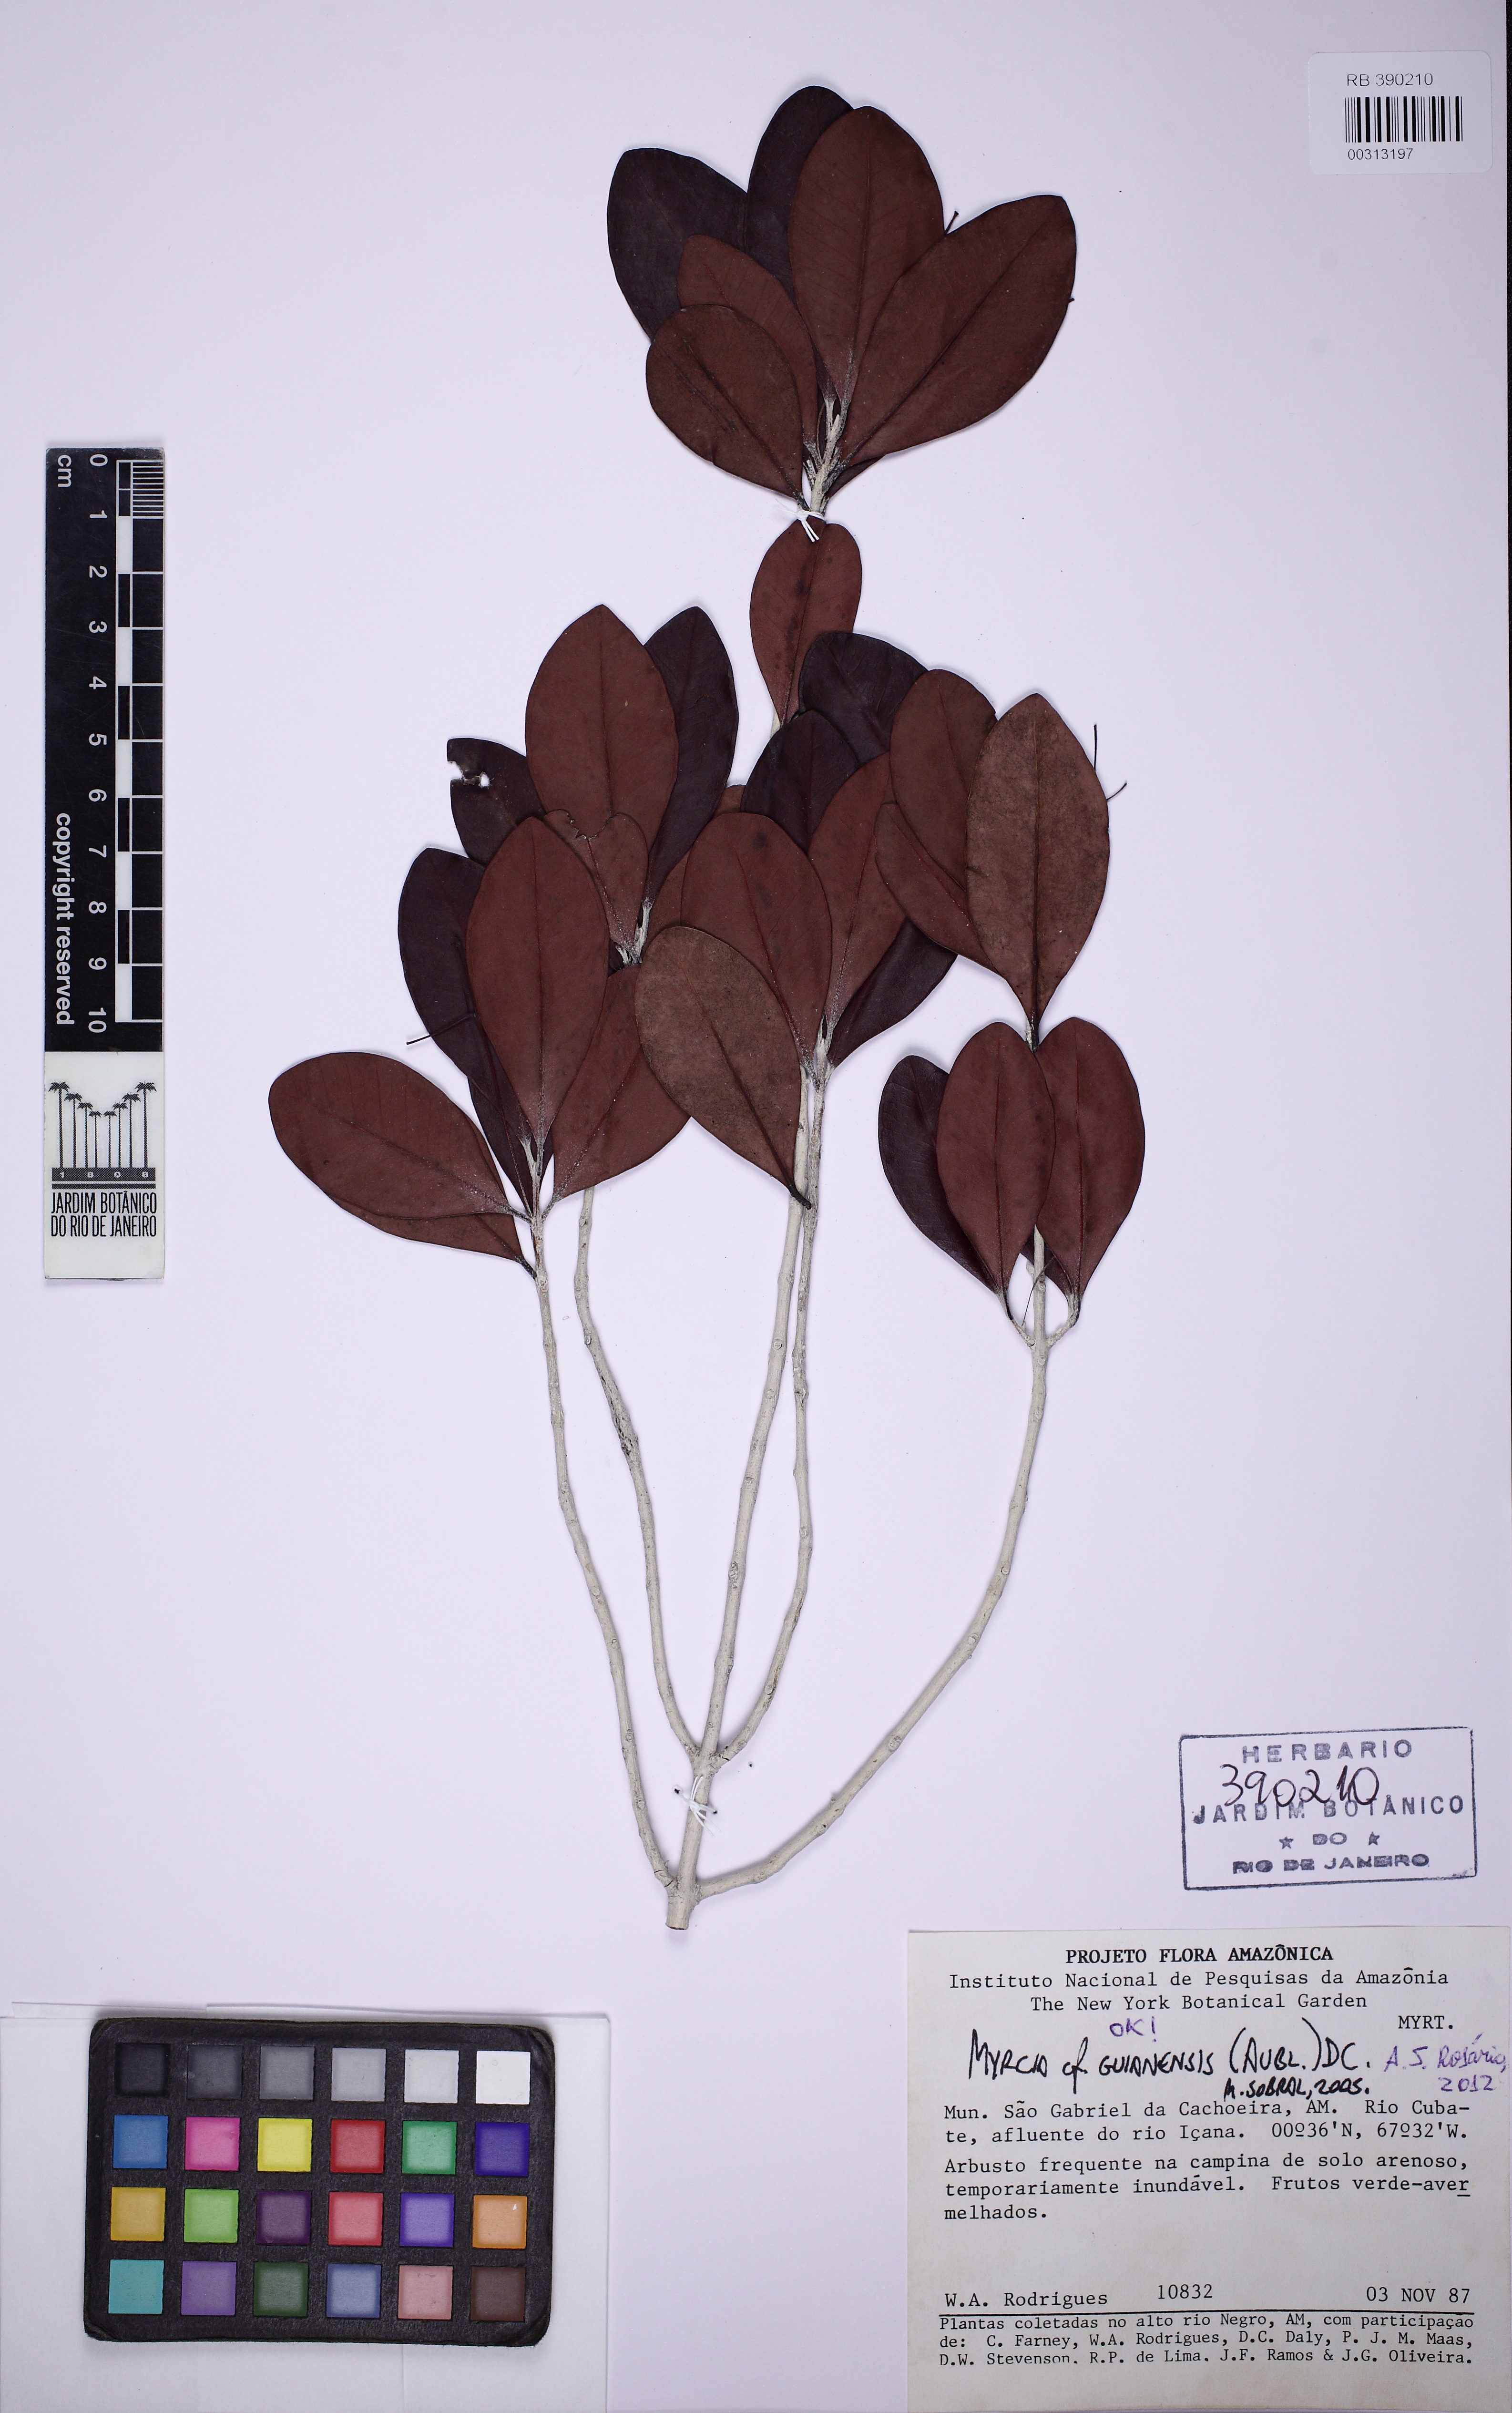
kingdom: Plantae
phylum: Tracheophyta
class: Magnoliopsida
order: Myrtales
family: Myrtaceae
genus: Myrcia
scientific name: Myrcia guianensis
